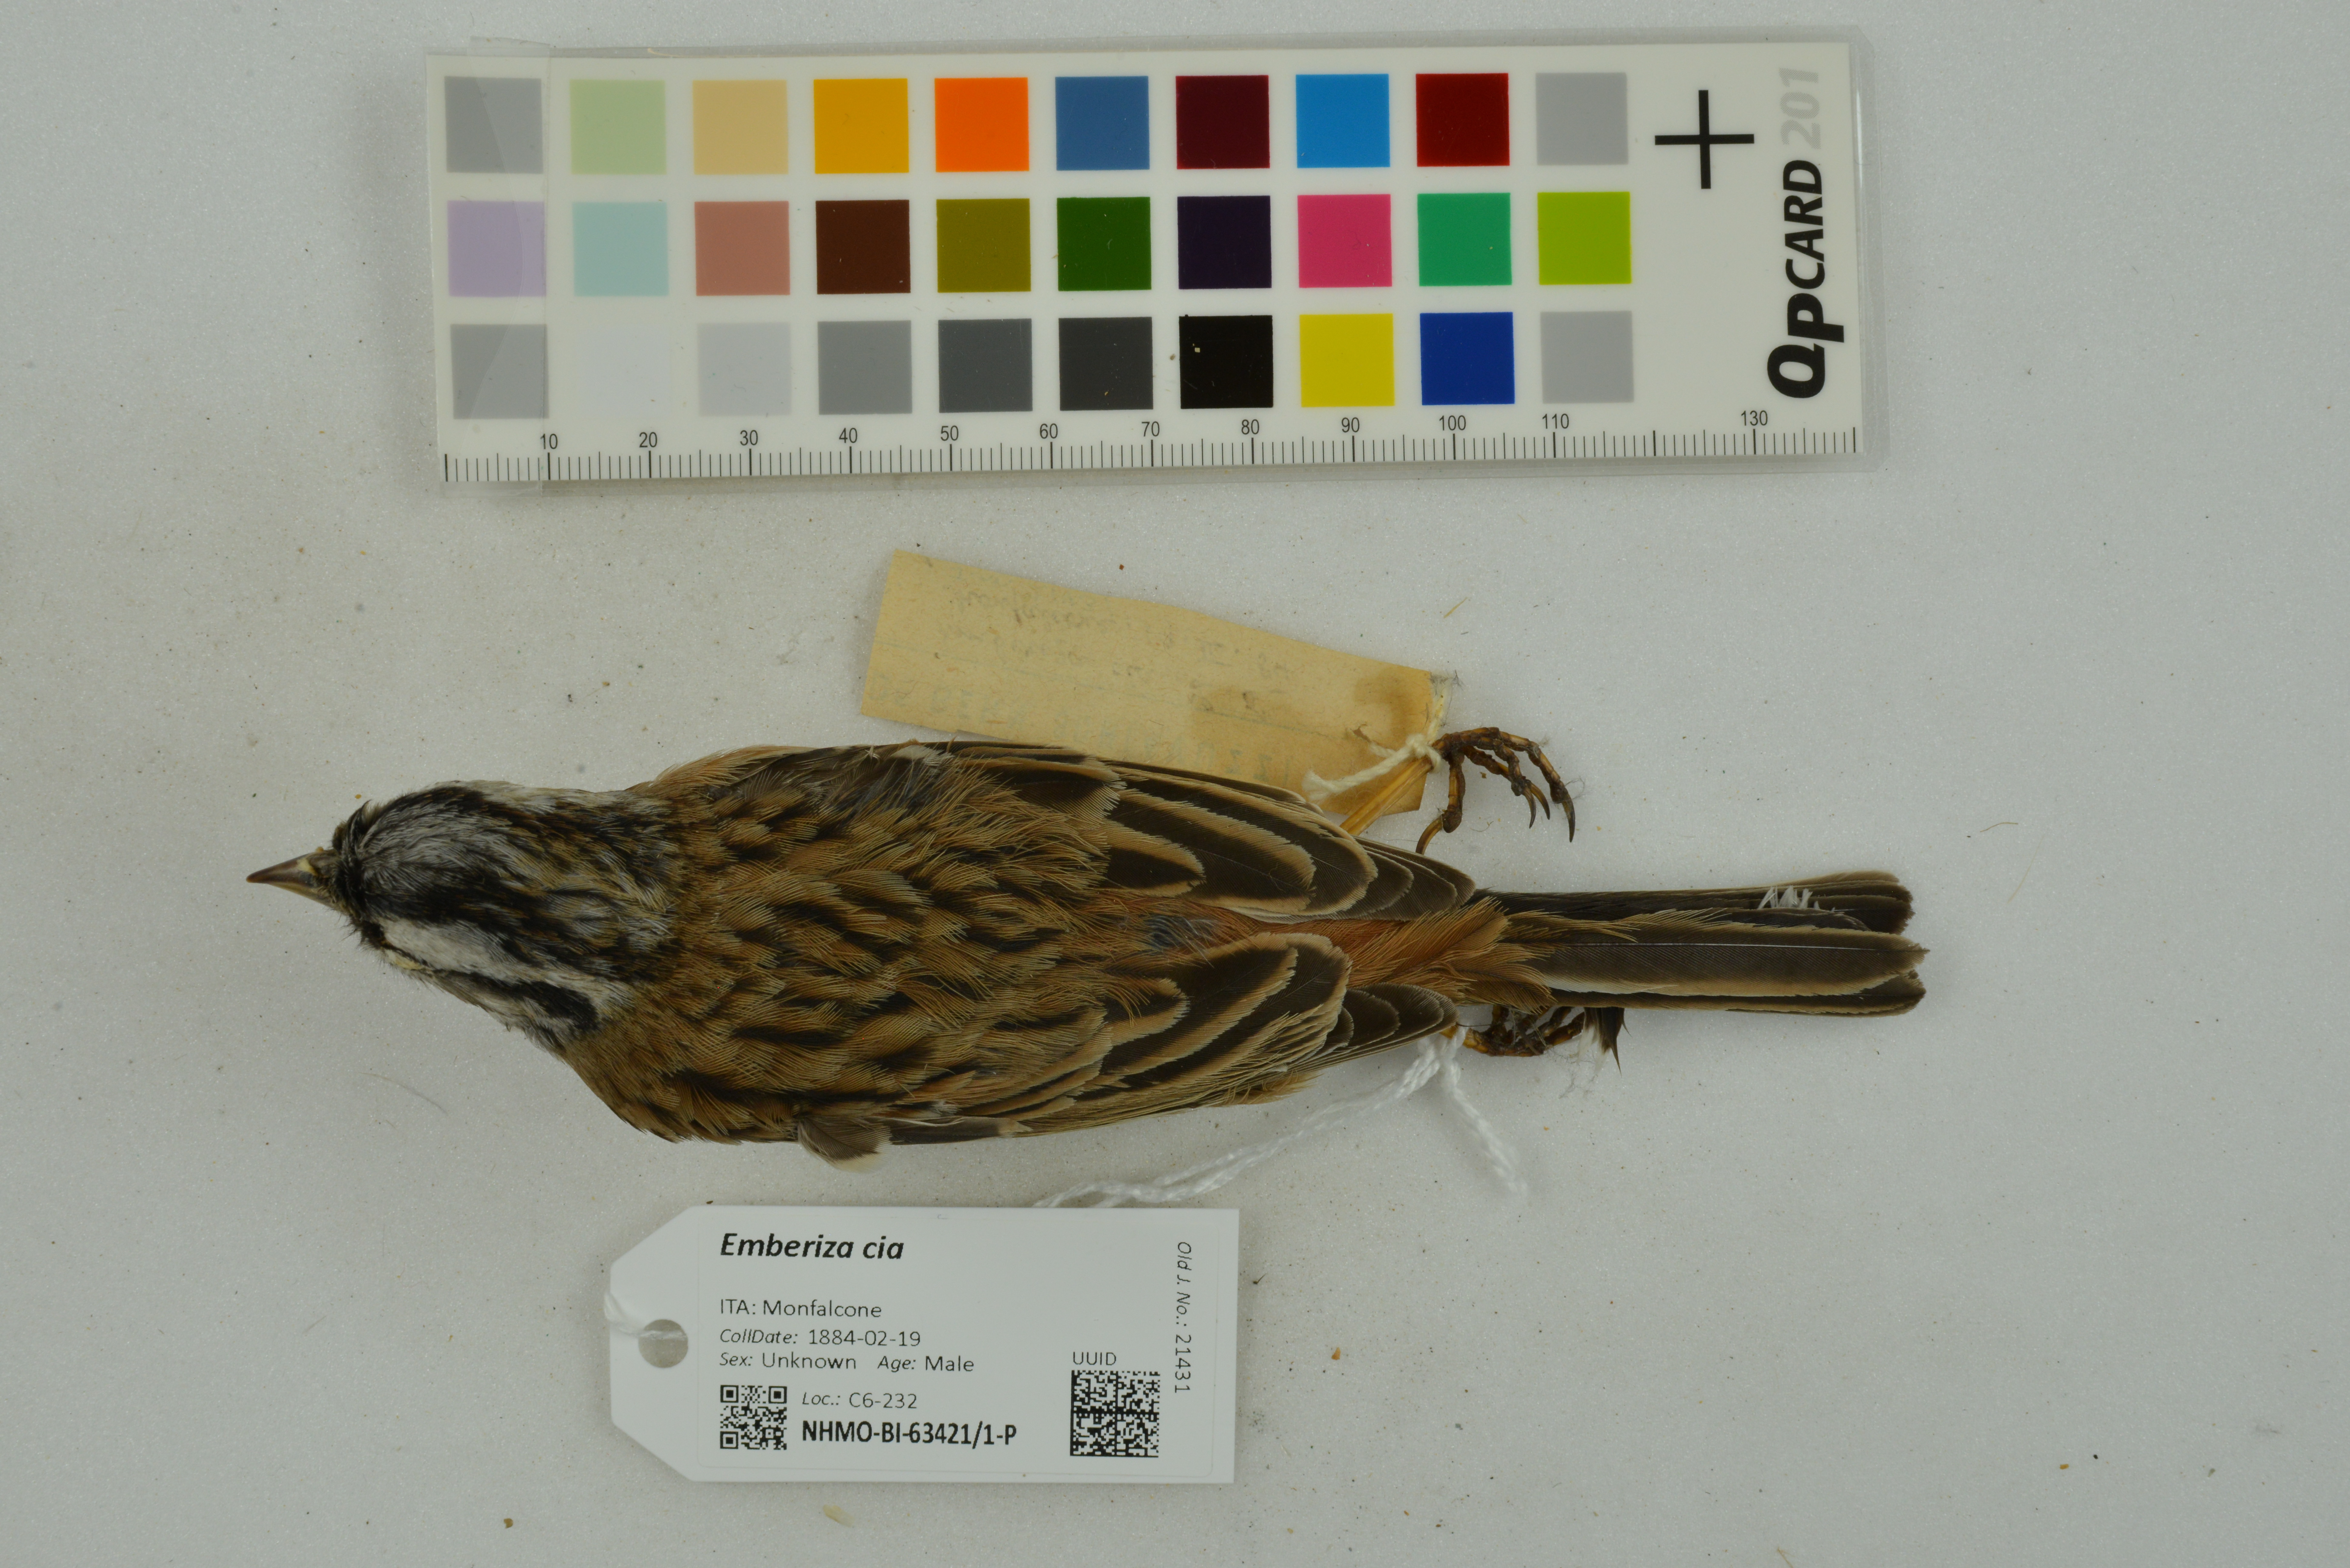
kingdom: Animalia
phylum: Chordata
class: Aves
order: Passeriformes
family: Emberizidae
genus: Emberiza
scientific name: Emberiza cia
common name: Rock bunting
